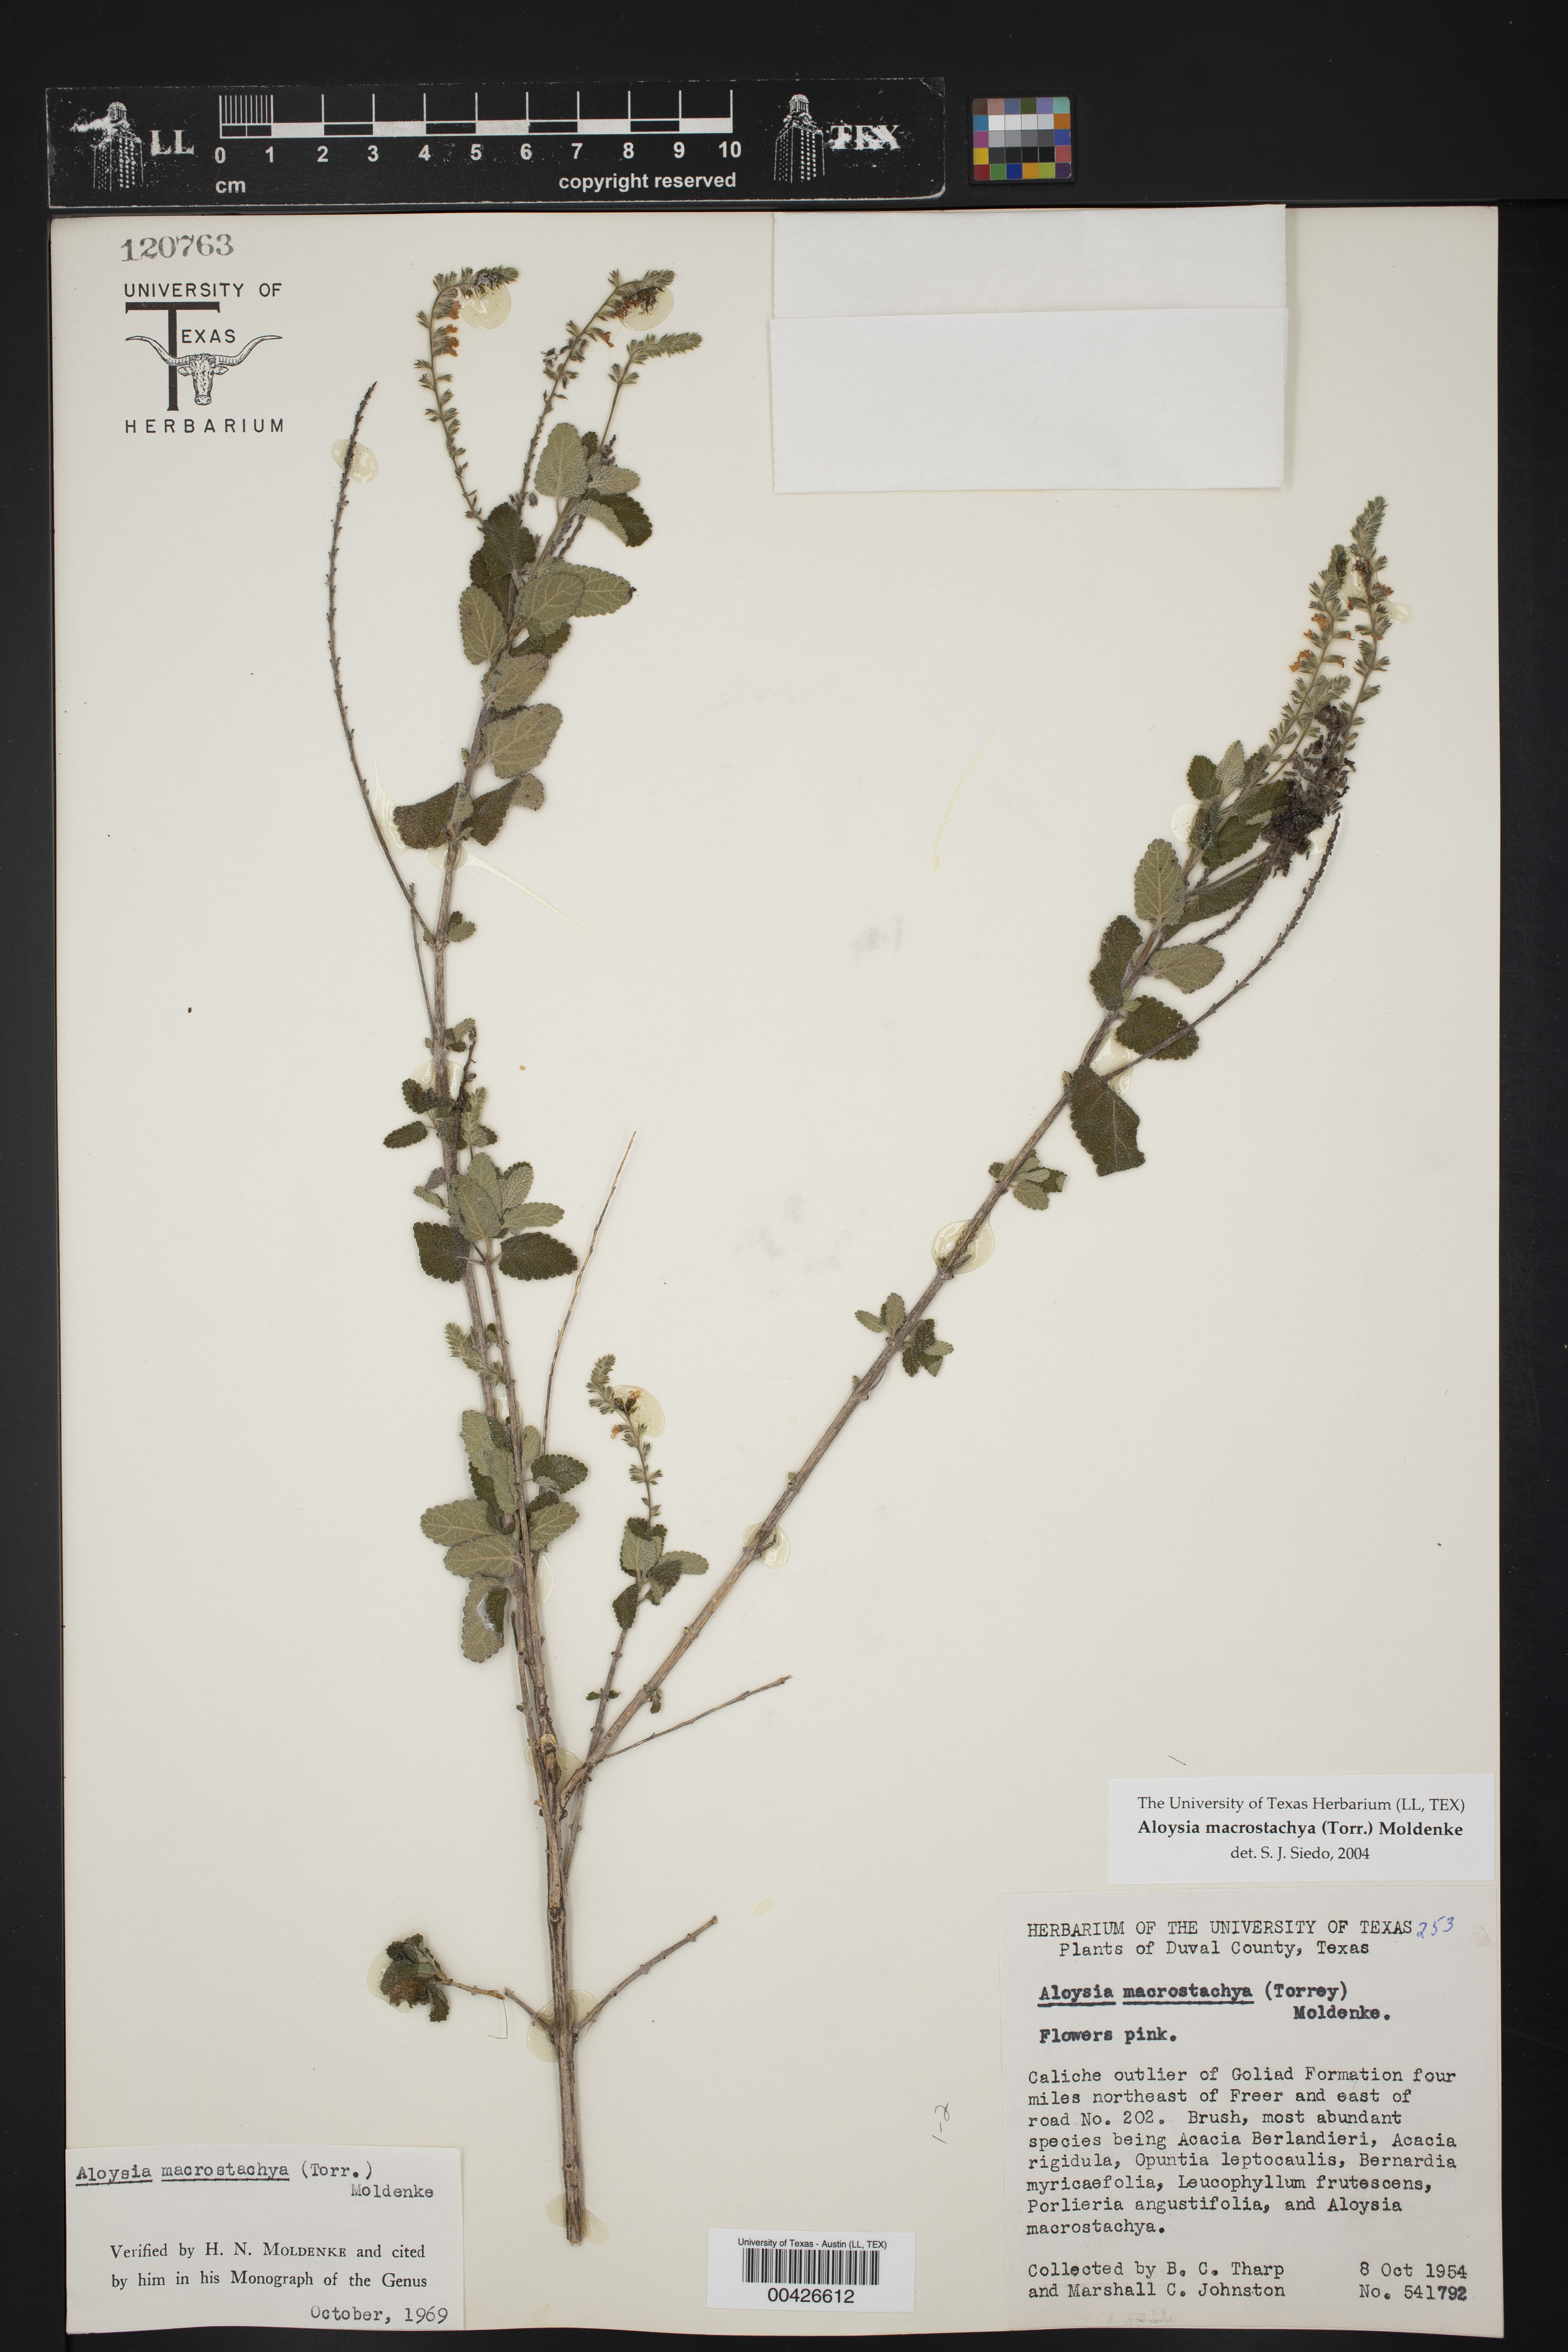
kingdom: Plantae
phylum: Tracheophyta
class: Magnoliopsida
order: Lamiales
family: Verbenaceae
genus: Aloysia
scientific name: Aloysia macrostachya
